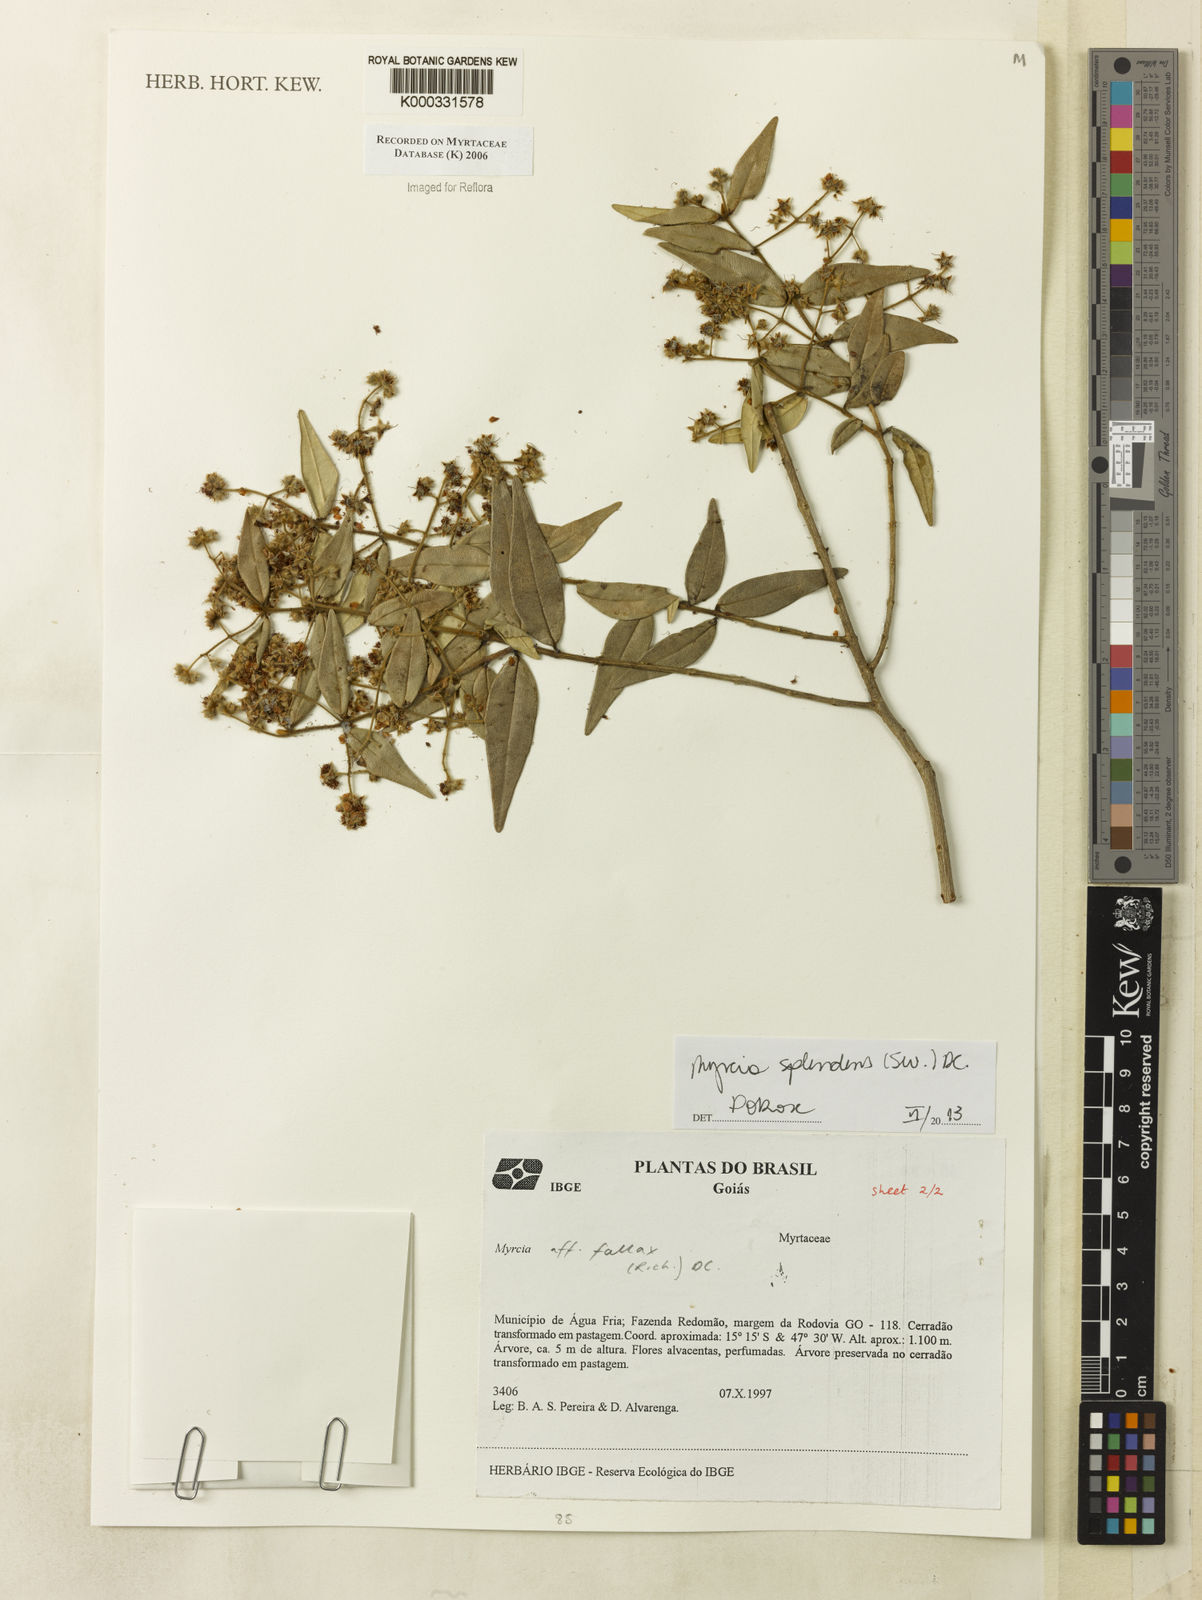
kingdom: Plantae
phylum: Tracheophyta
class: Magnoliopsida
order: Myrtales
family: Myrtaceae
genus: Myrcia
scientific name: Myrcia
